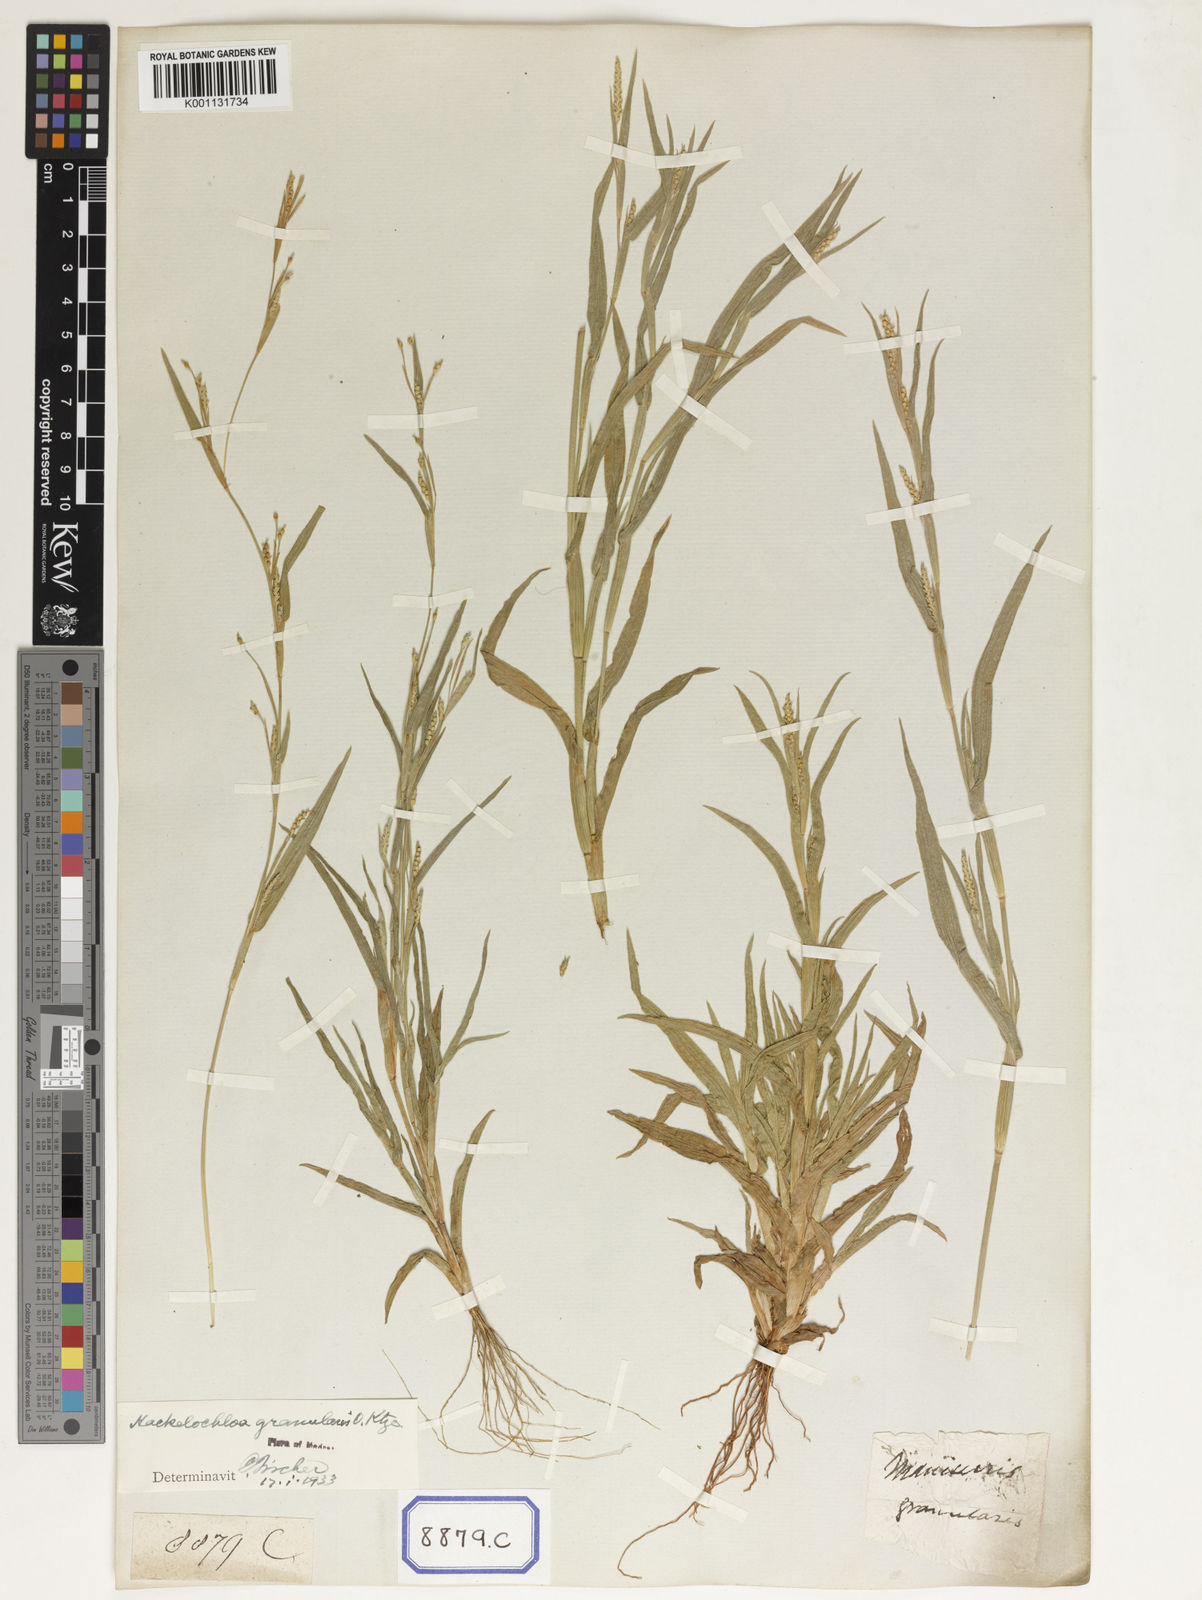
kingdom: Plantae
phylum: Tracheophyta
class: Liliopsida
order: Poales
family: Poaceae
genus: Manisuris
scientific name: Manisuris
